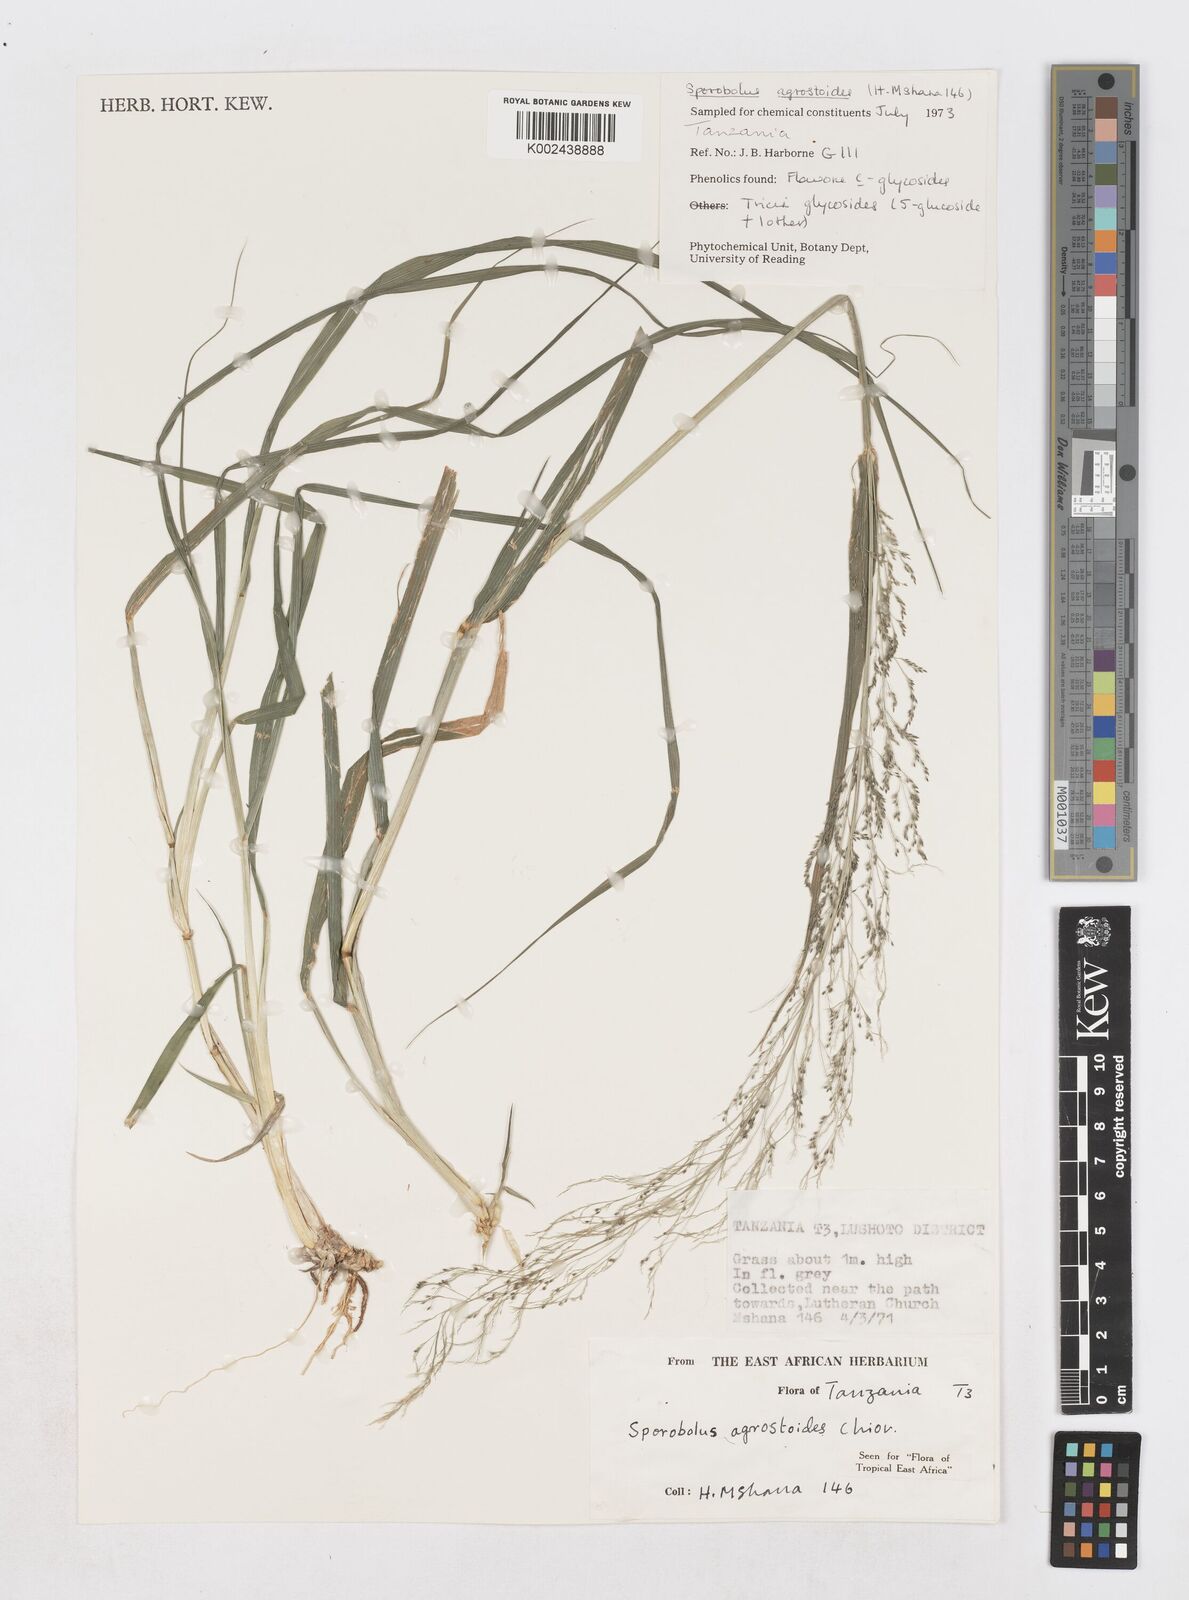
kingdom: Plantae
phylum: Tracheophyta
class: Liliopsida
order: Poales
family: Poaceae
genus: Sporobolus
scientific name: Sporobolus agrostoides
